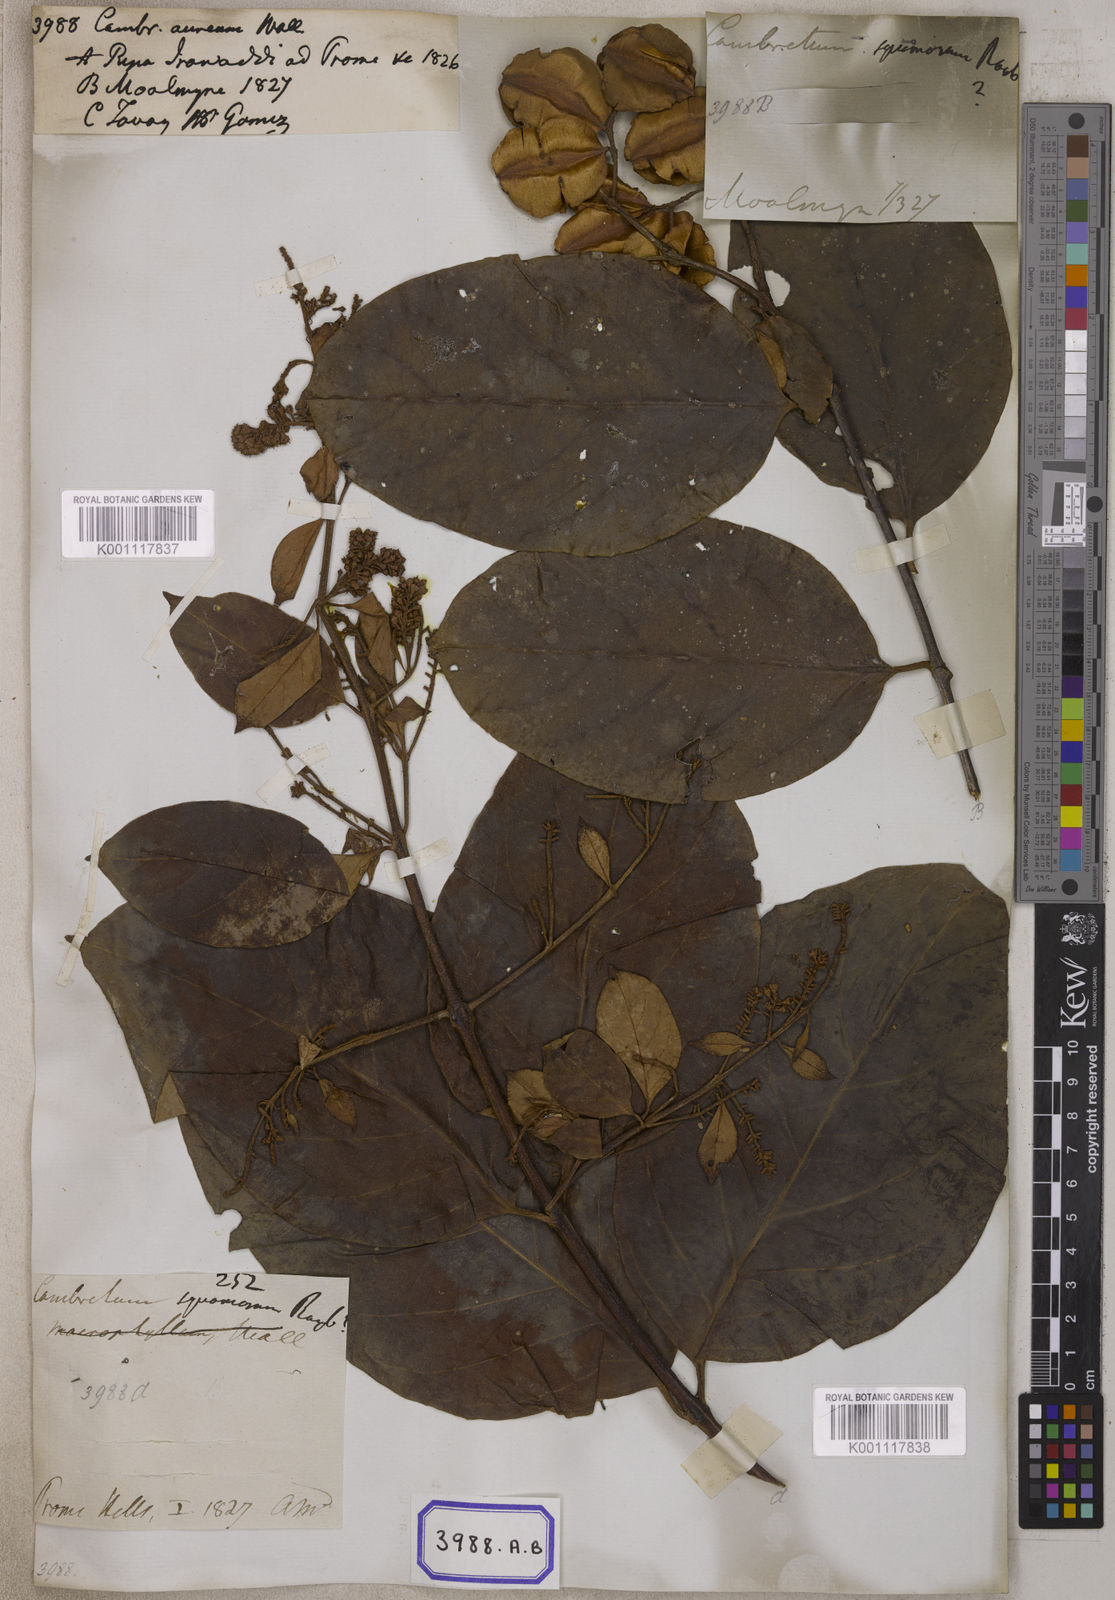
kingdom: Plantae
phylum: Tracheophyta
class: Magnoliopsida
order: Myrtales
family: Combretaceae
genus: Combretum
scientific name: Combretum aureum
